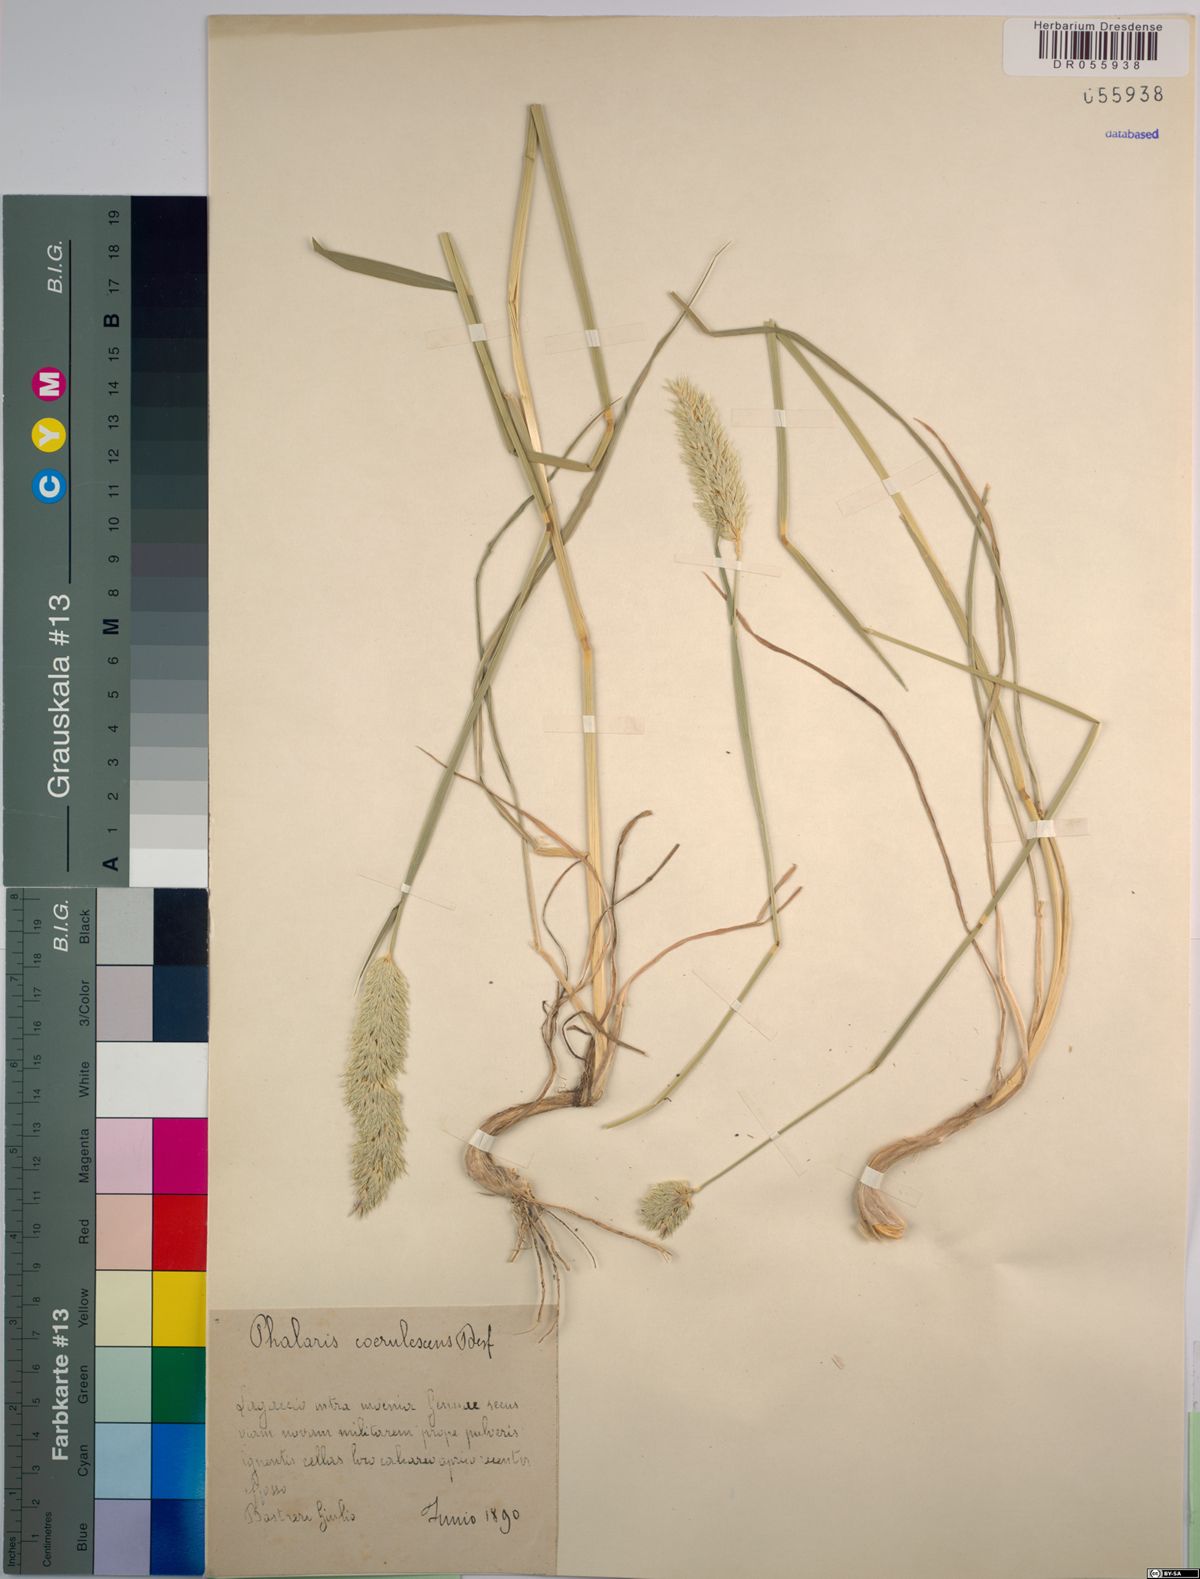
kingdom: Plantae
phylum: Tracheophyta
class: Liliopsida
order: Poales
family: Poaceae
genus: Phalaris
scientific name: Phalaris coerulescens
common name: Sunolgrass
